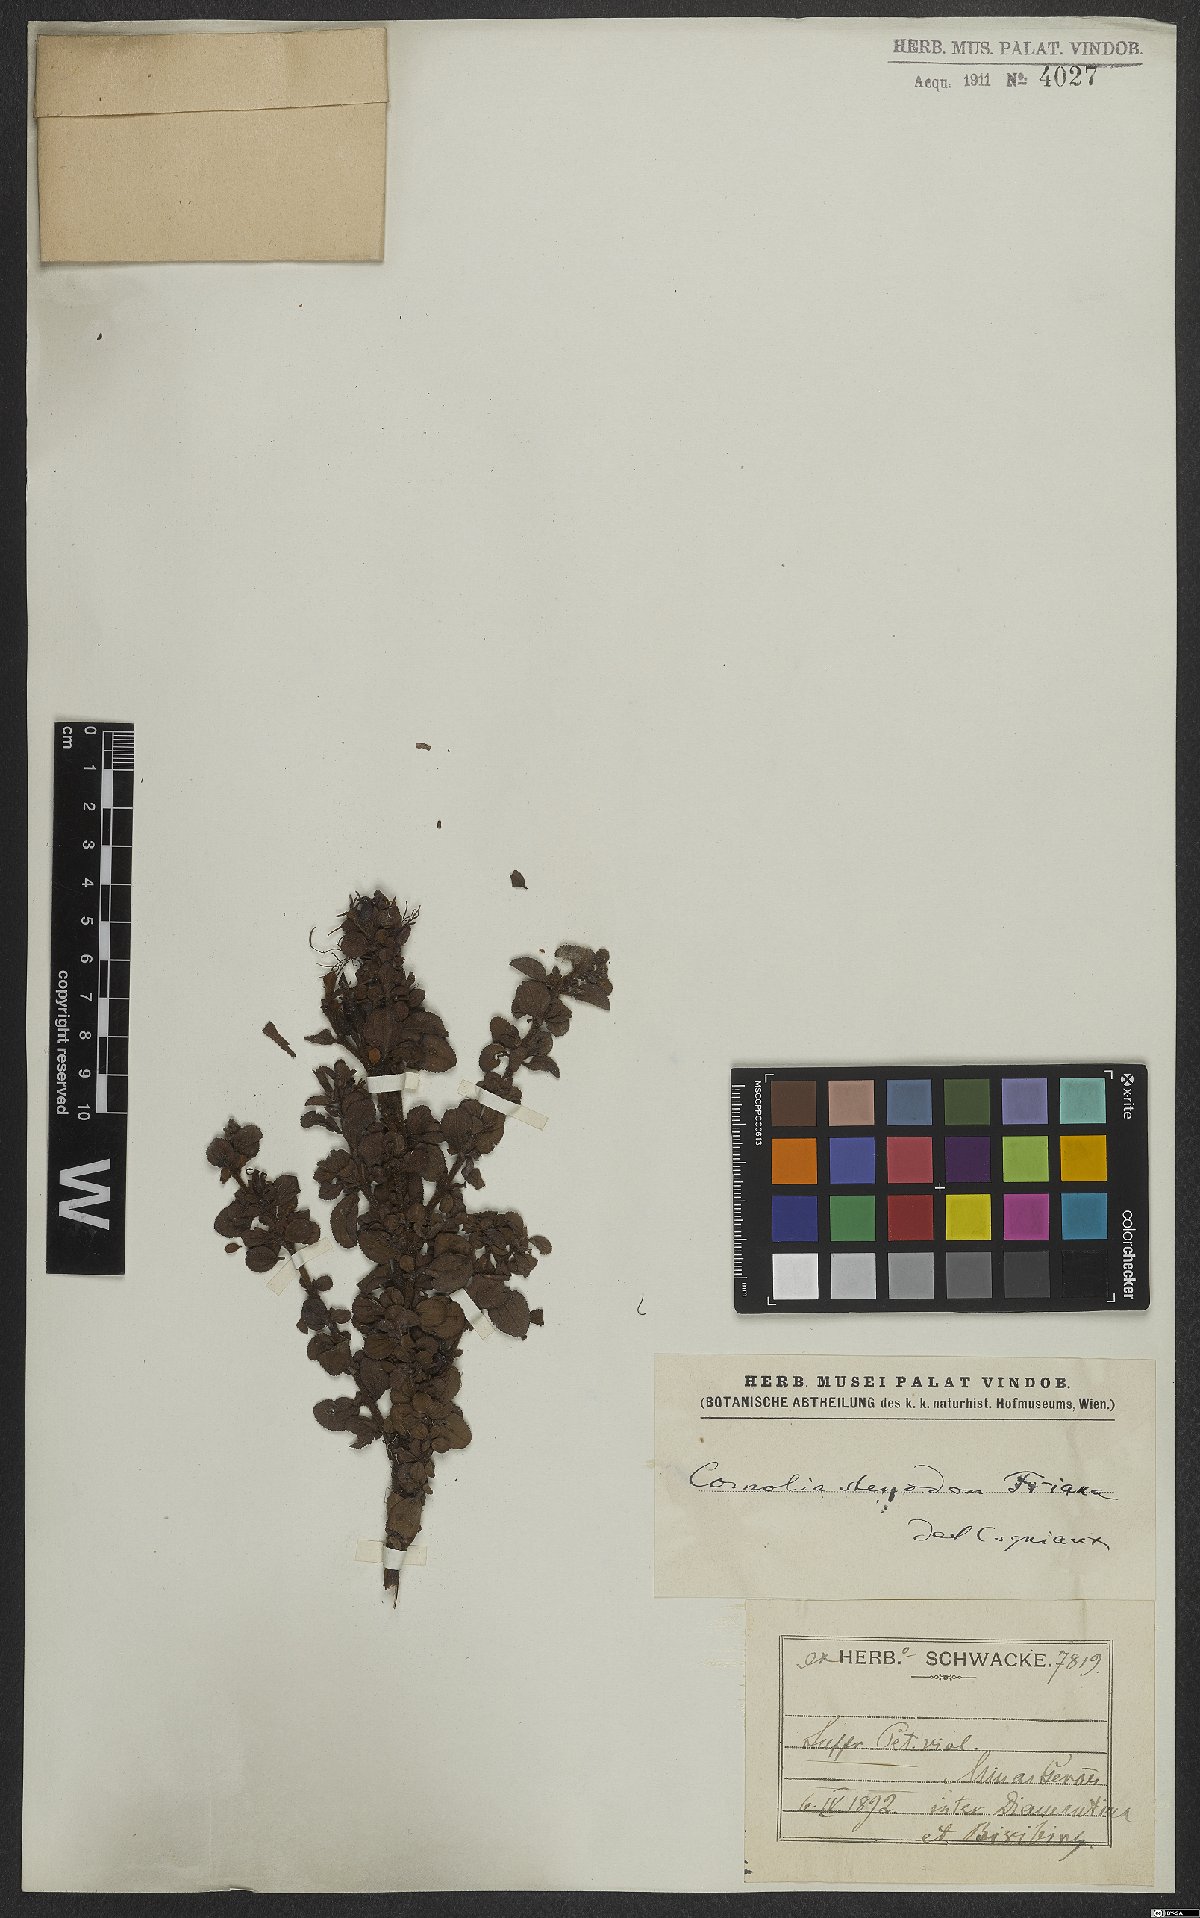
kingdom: Plantae
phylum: Tracheophyta
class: Magnoliopsida
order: Myrtales
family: Melastomataceae
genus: Fritzschia
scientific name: Fritzschia stenodon
